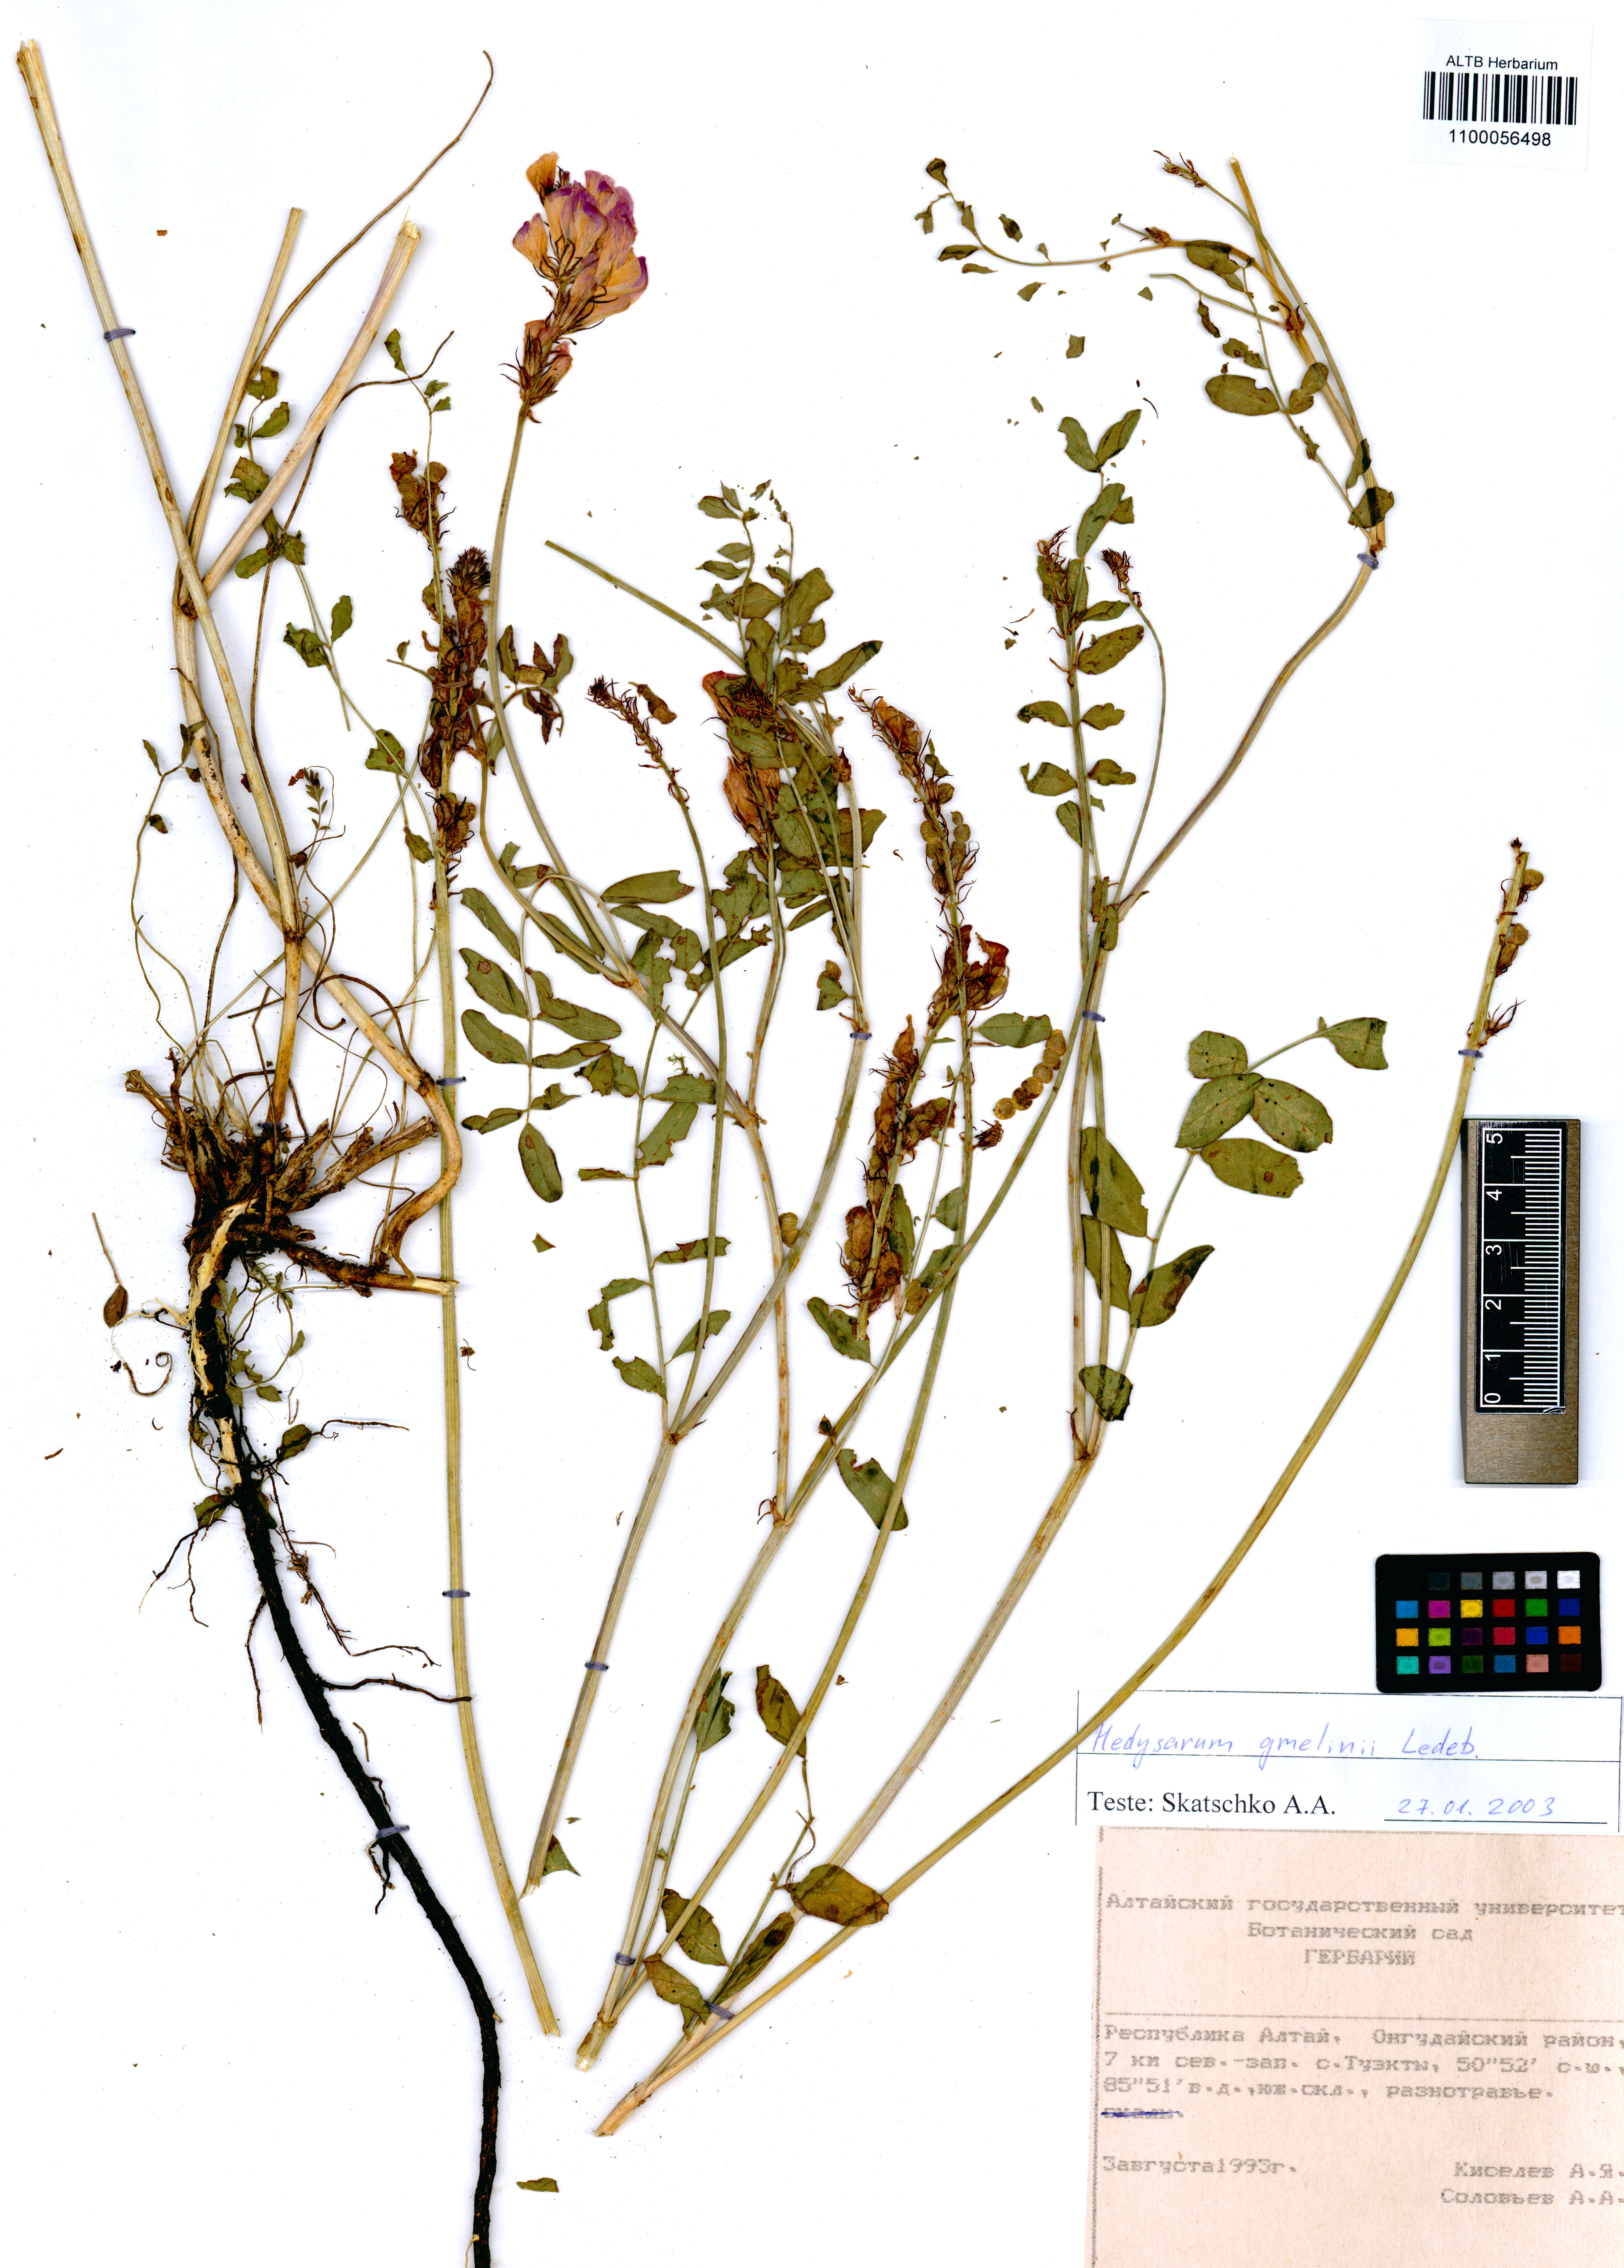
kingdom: Plantae
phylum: Tracheophyta
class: Magnoliopsida
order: Fabales
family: Fabaceae
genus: Hedysarum
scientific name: Hedysarum gmelinii
